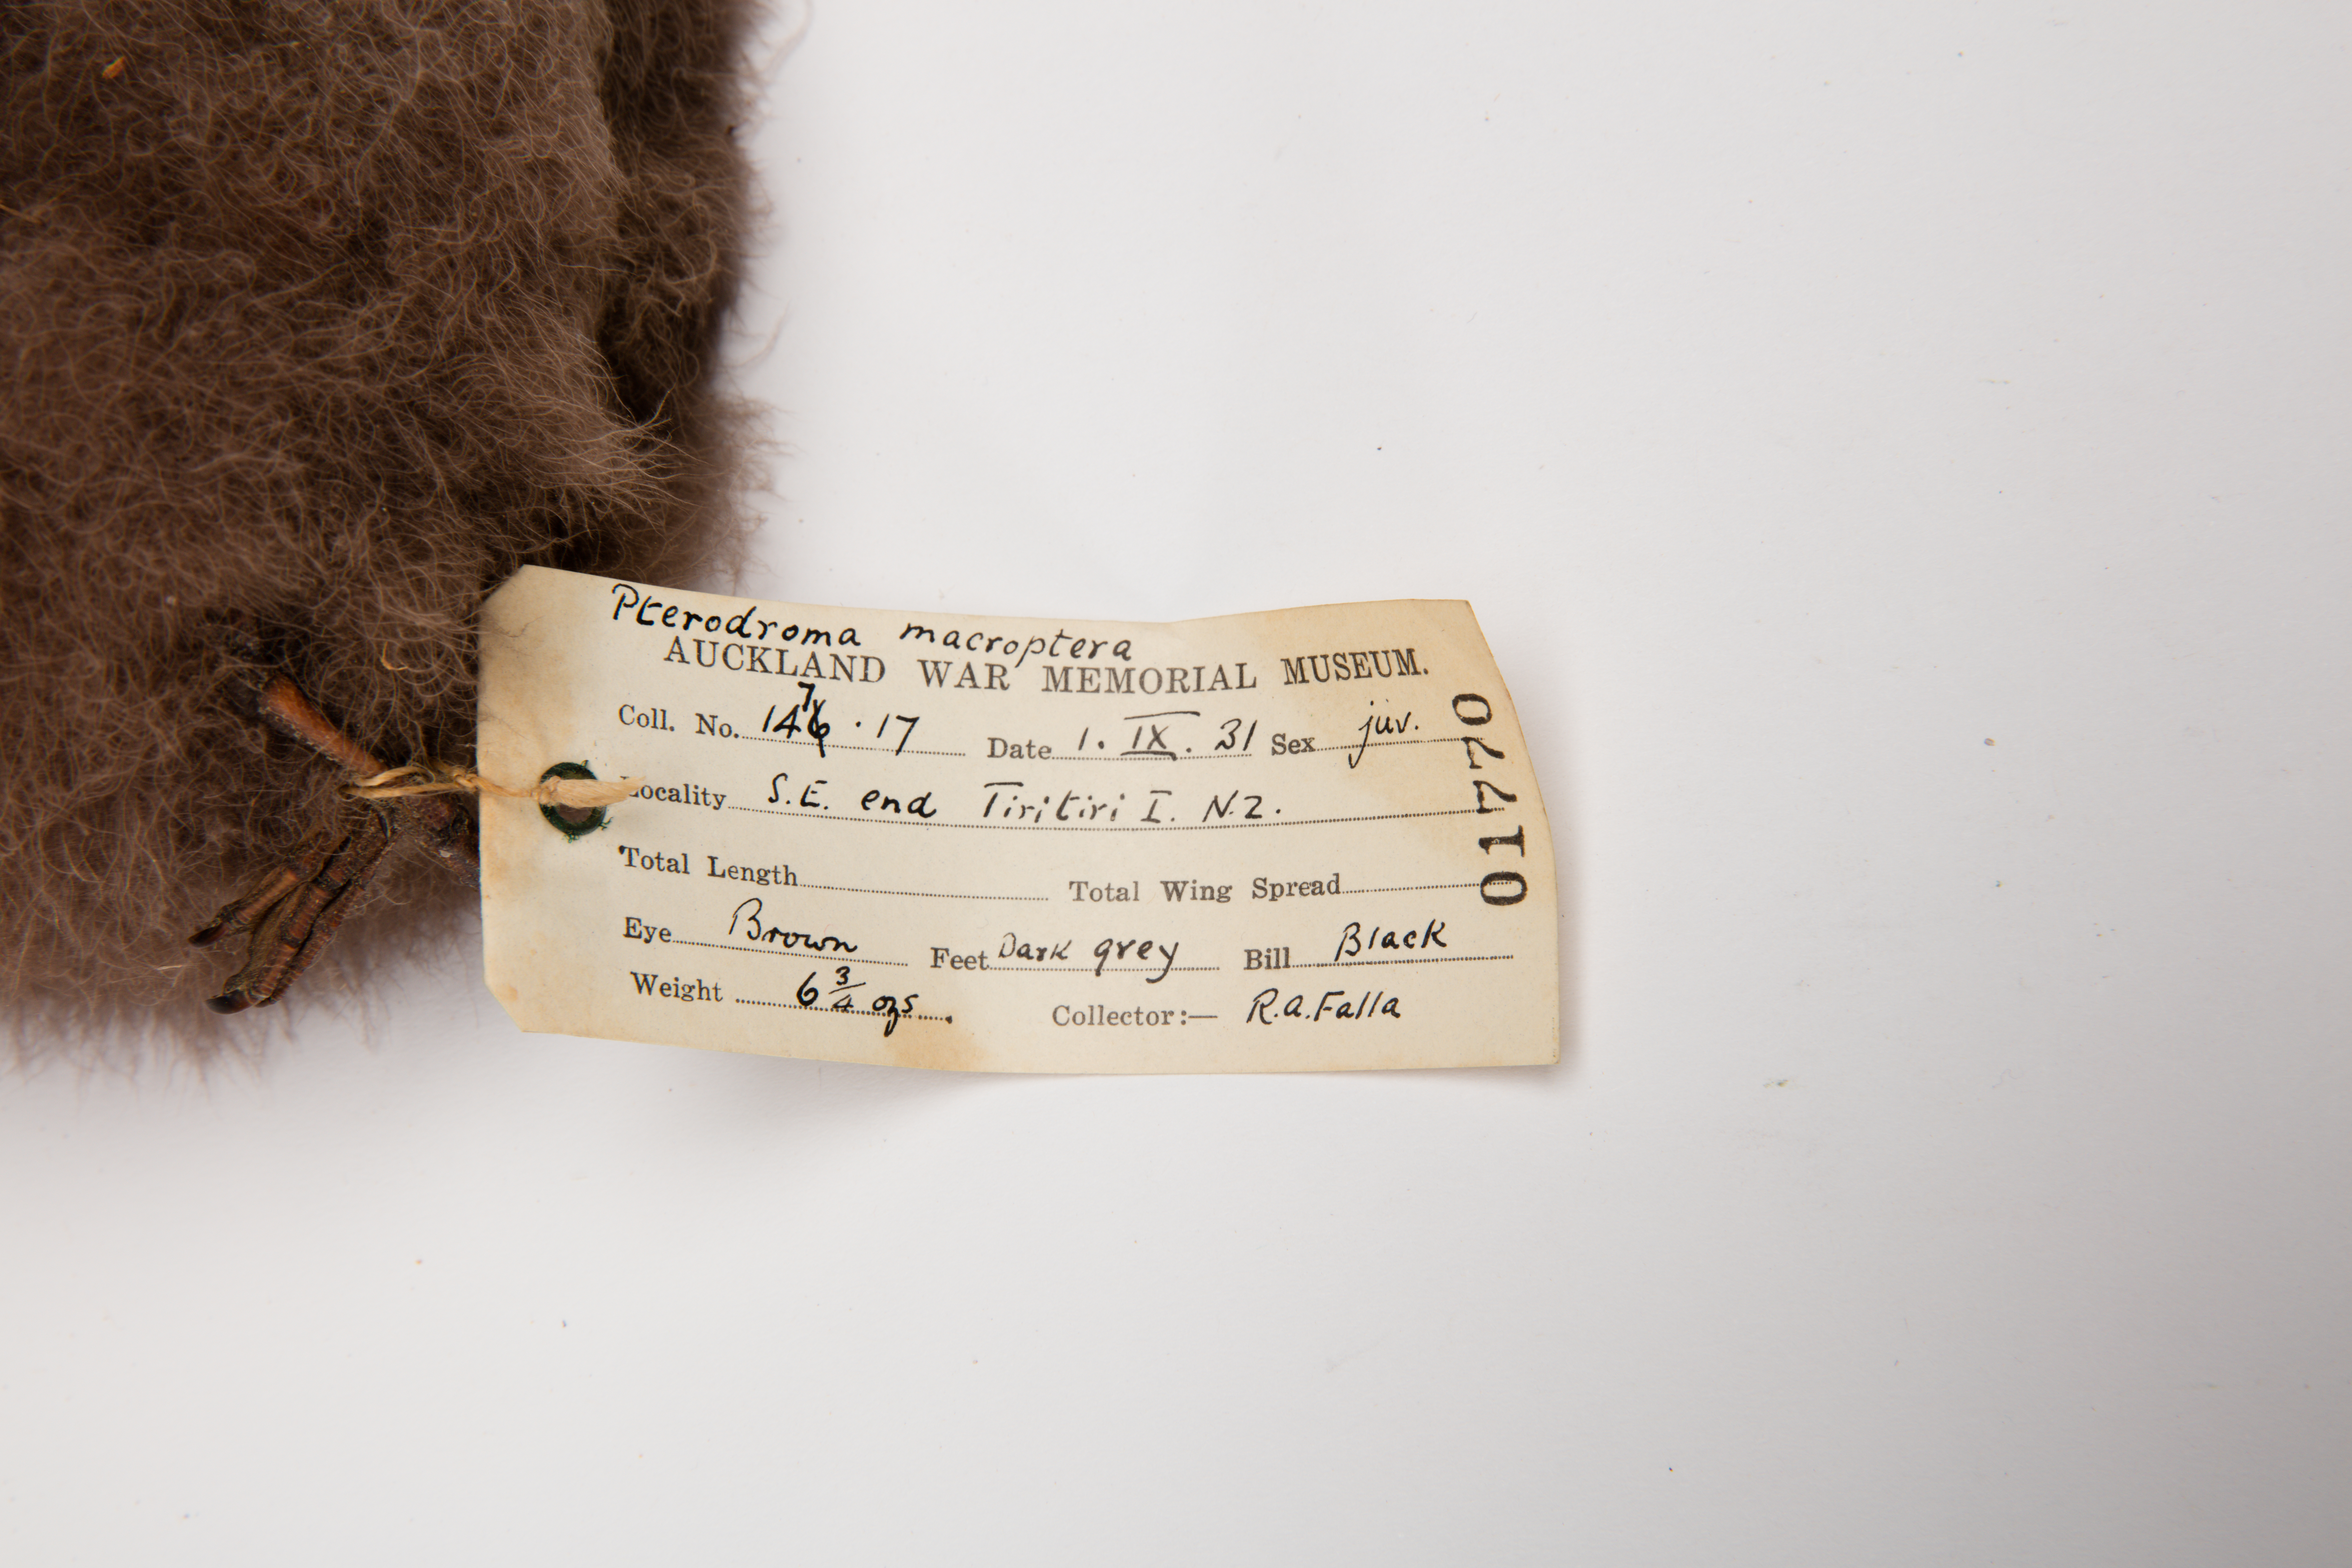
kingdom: Animalia
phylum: Chordata
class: Aves
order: Procellariiformes
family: Procellariidae
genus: Pterodroma
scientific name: Pterodroma macroptera
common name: Great-winged petrel
